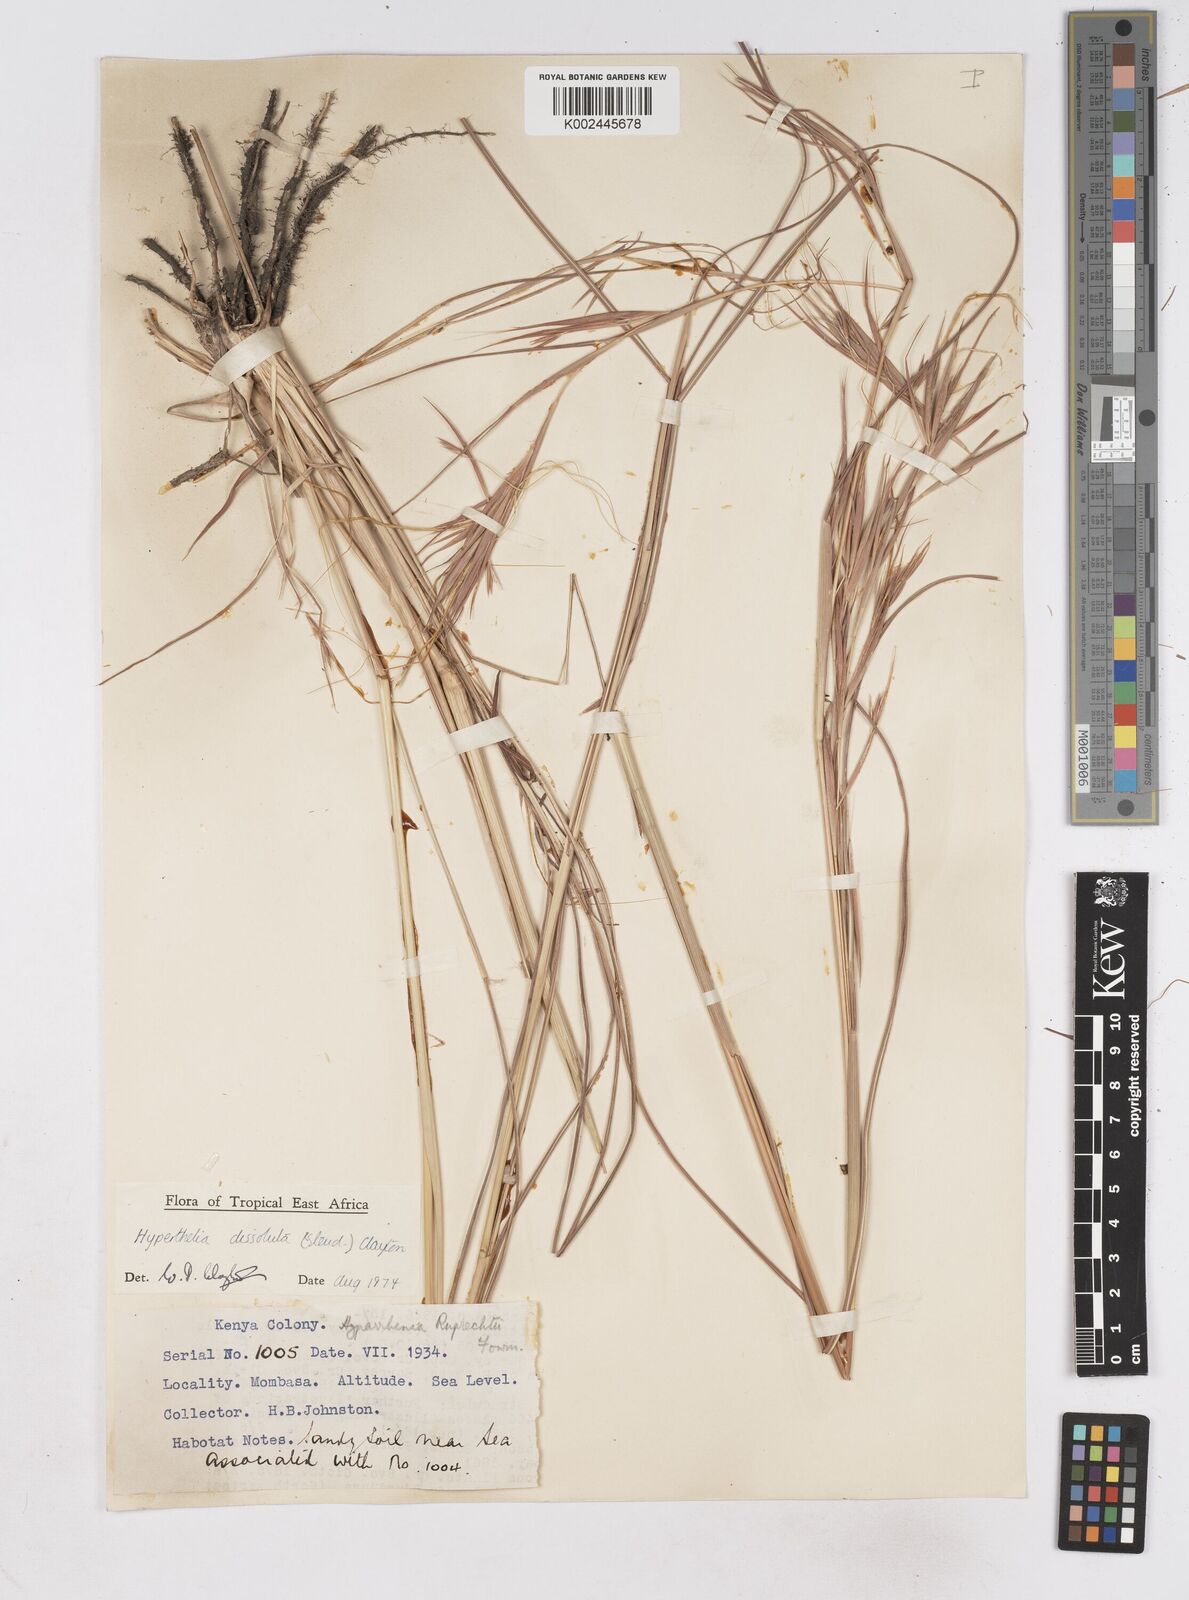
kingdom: Plantae
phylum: Tracheophyta
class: Liliopsida
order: Poales
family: Poaceae
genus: Hyperthelia
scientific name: Hyperthelia dissoluta
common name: Yellow thatching grass
